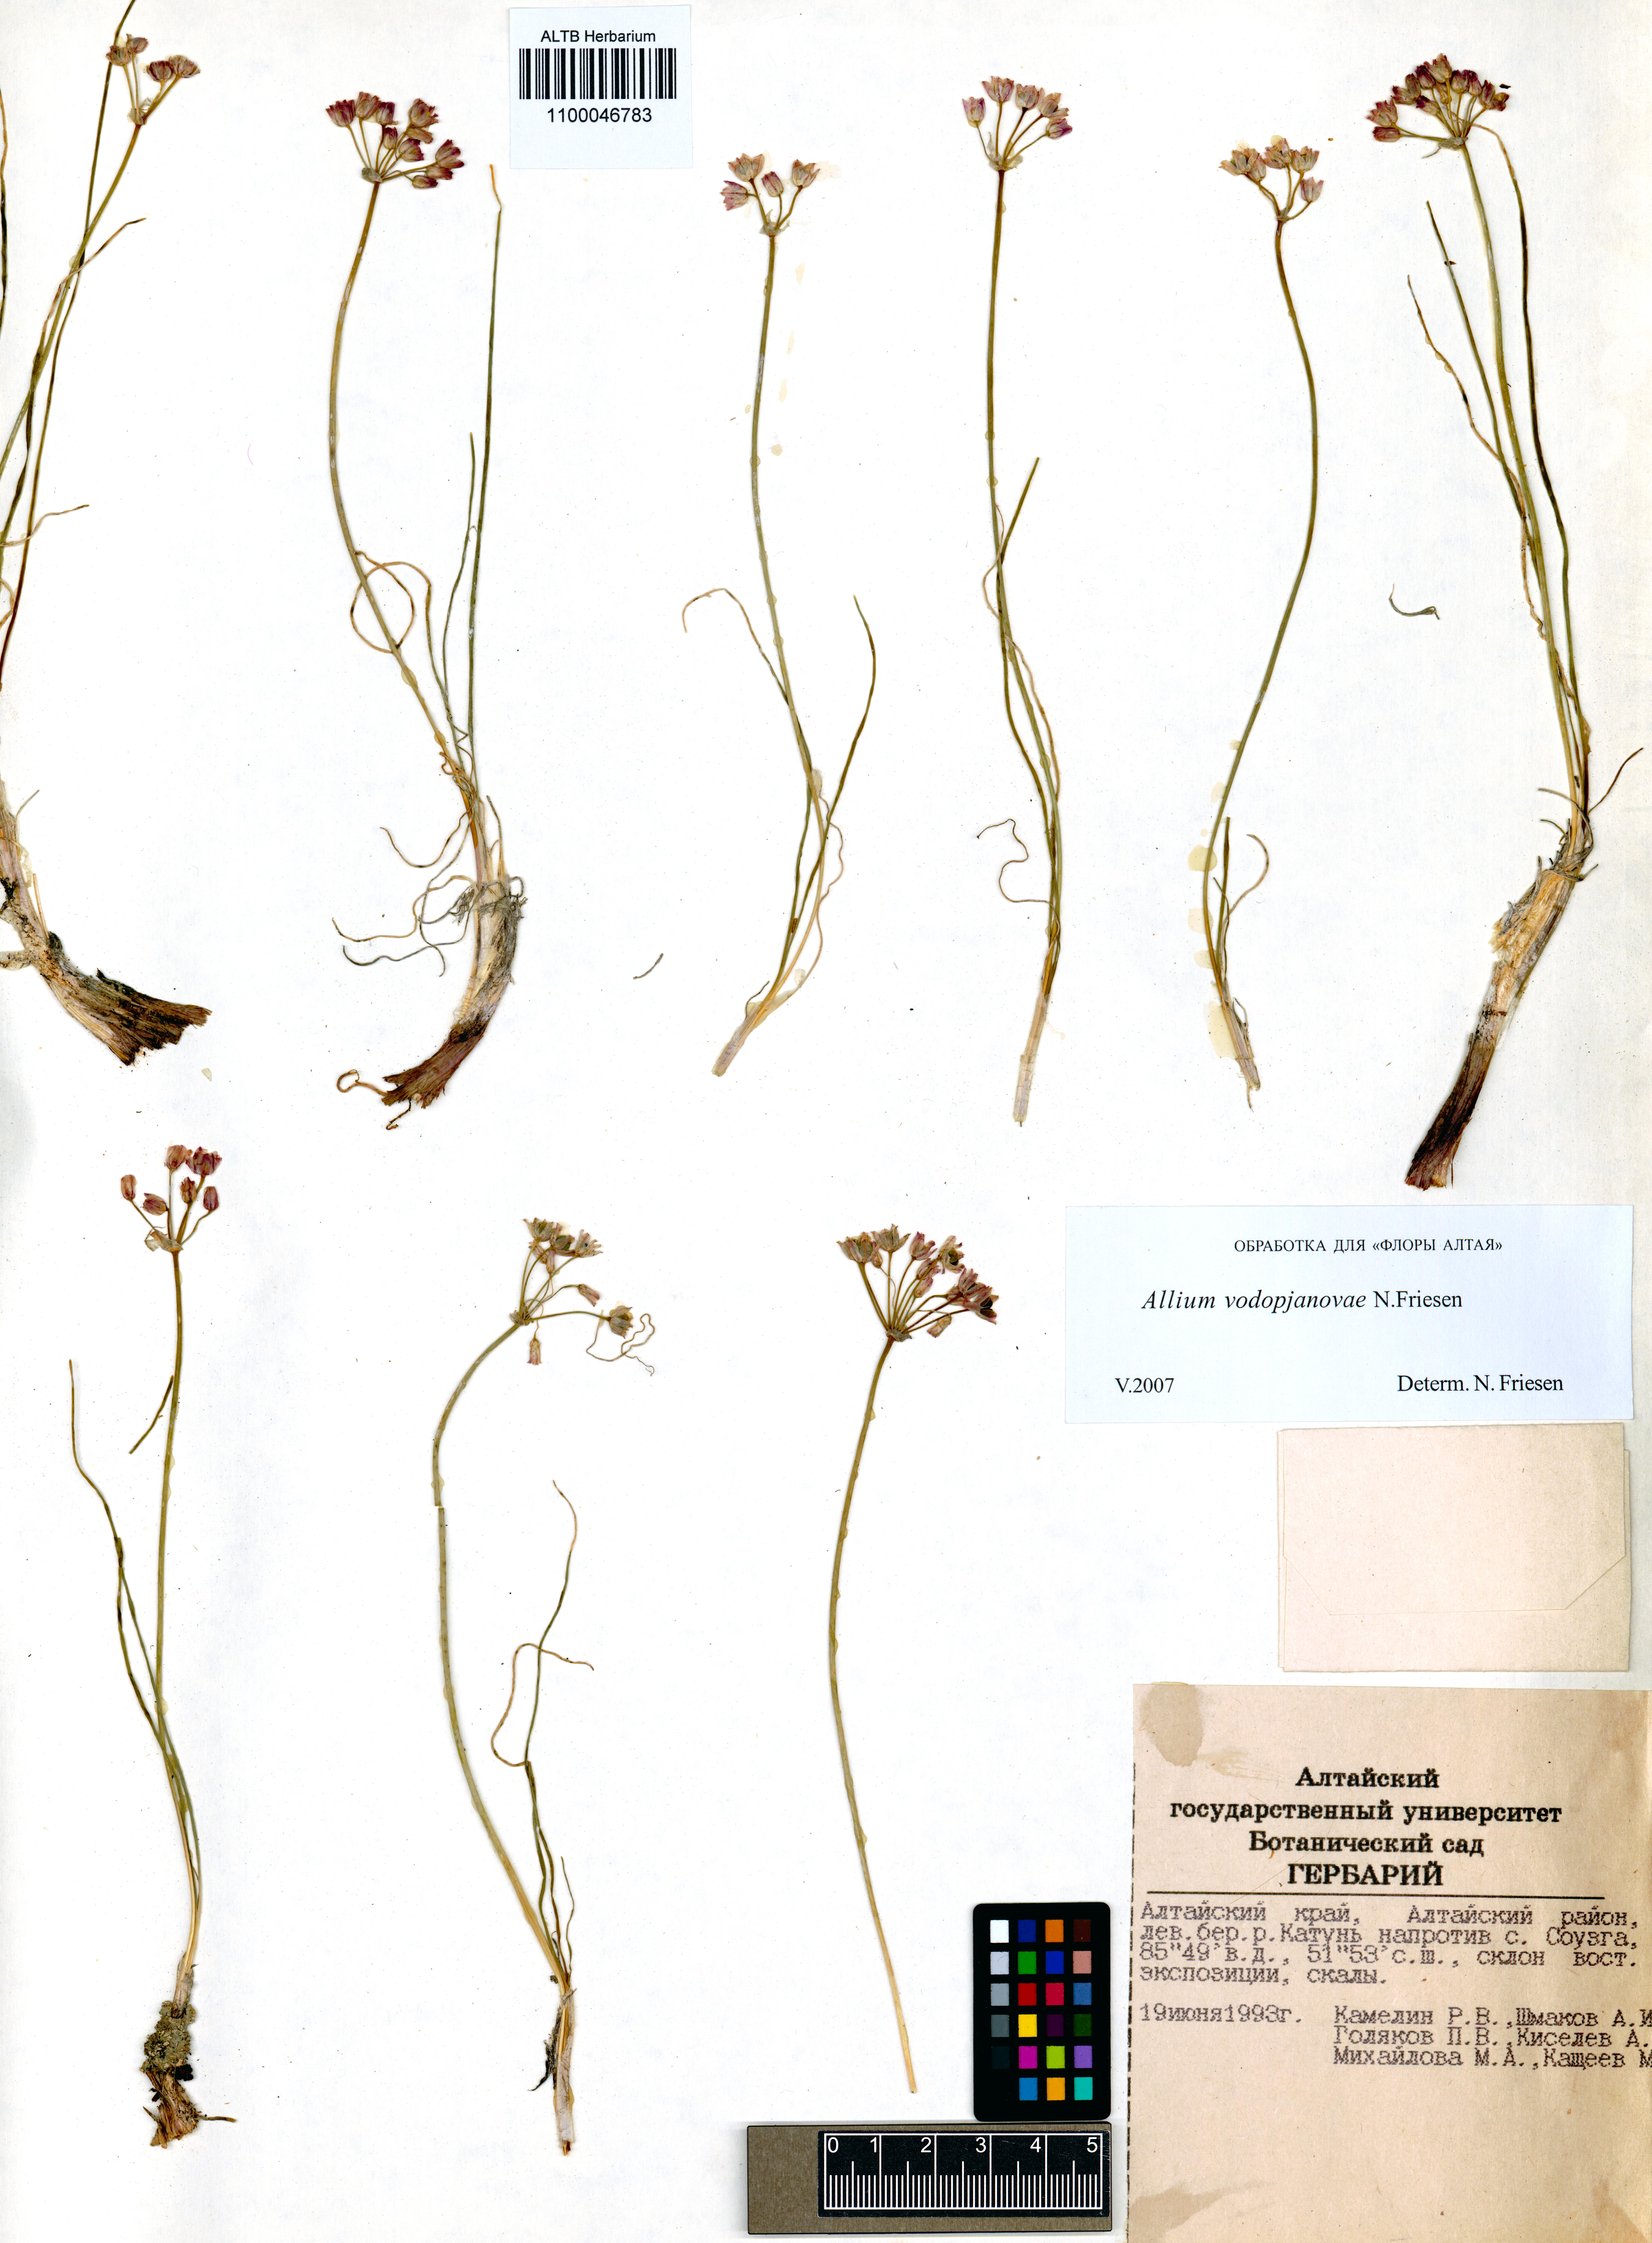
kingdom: Plantae
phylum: Tracheophyta
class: Liliopsida
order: Asparagales
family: Amaryllidaceae
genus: Allium
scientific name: Allium vodopjanovae
